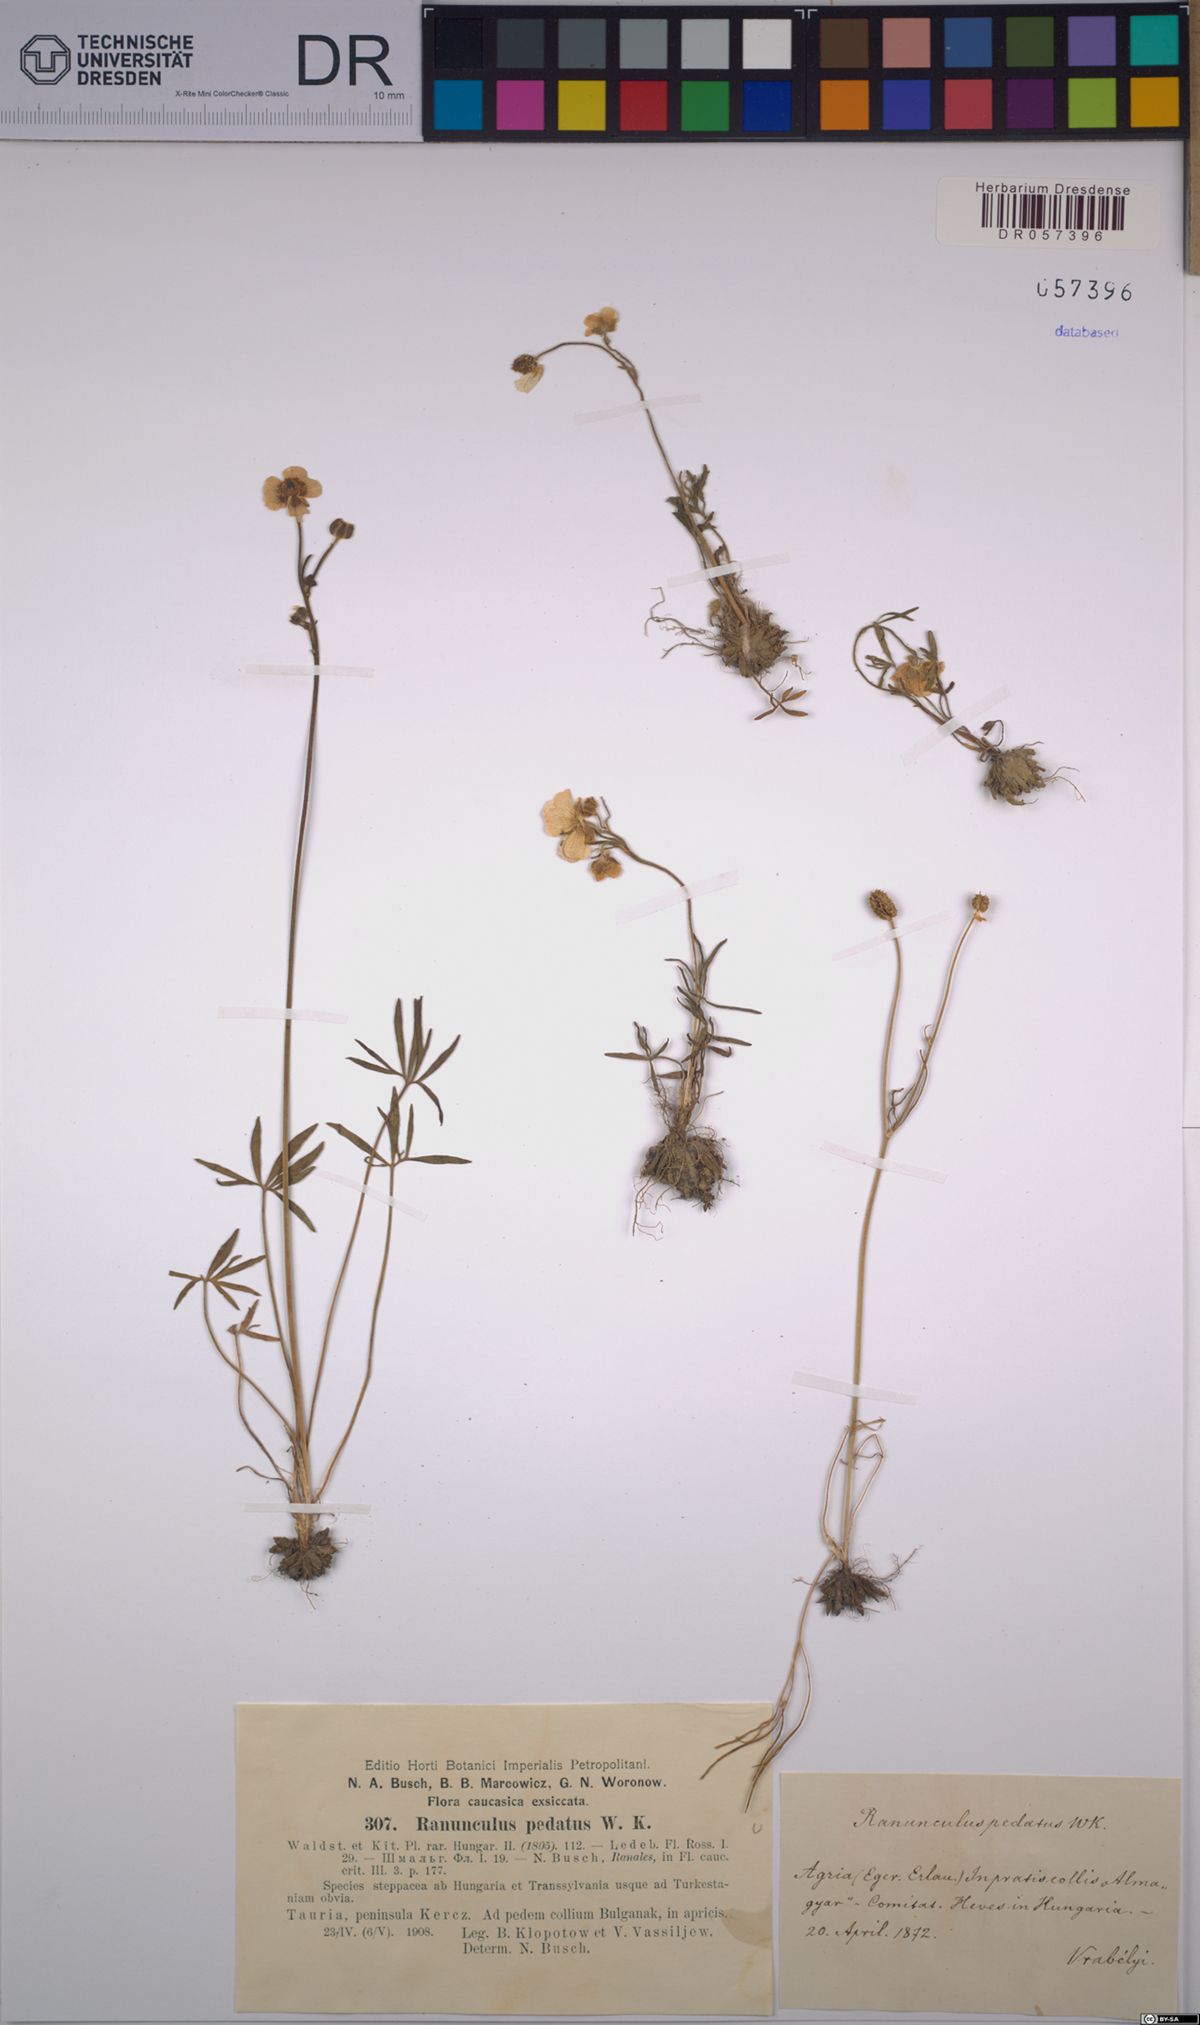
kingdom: Plantae
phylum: Tracheophyta
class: Magnoliopsida
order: Ranunculales
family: Ranunculaceae
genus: Ranunculus
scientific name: Ranunculus pedatus
